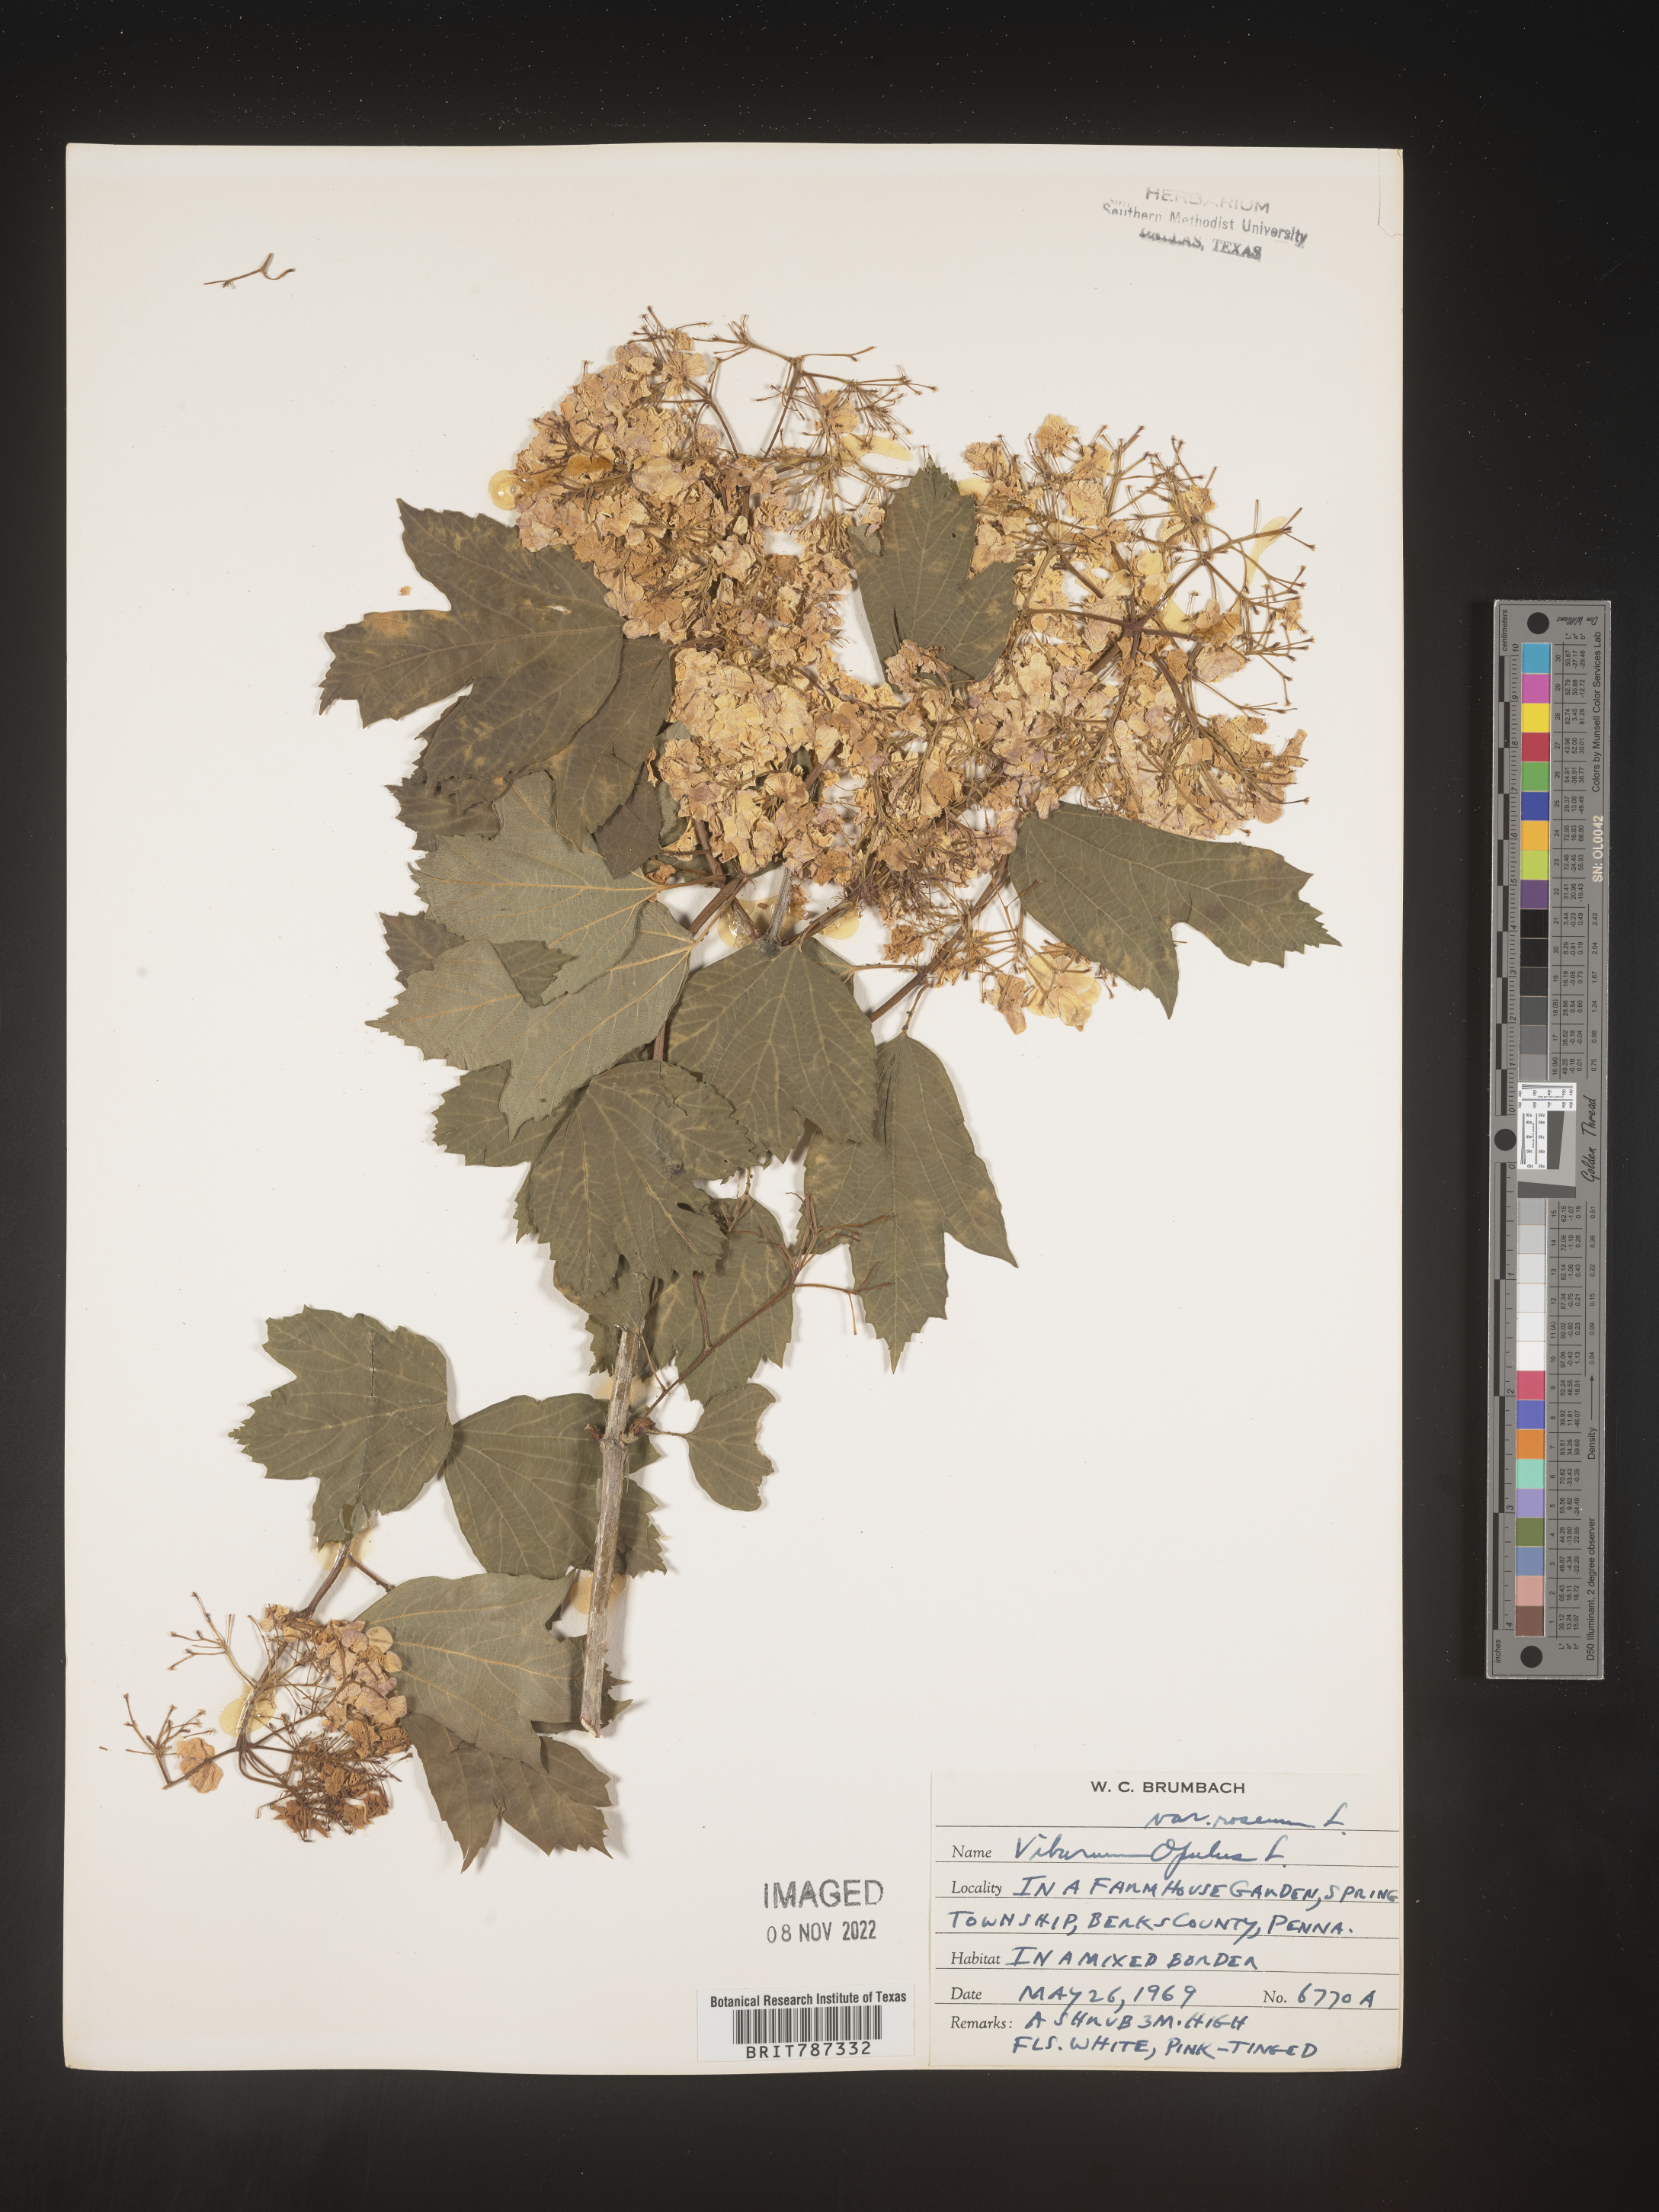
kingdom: Plantae
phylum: Tracheophyta
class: Magnoliopsida
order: Dipsacales
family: Viburnaceae
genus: Viburnum
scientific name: Viburnum
